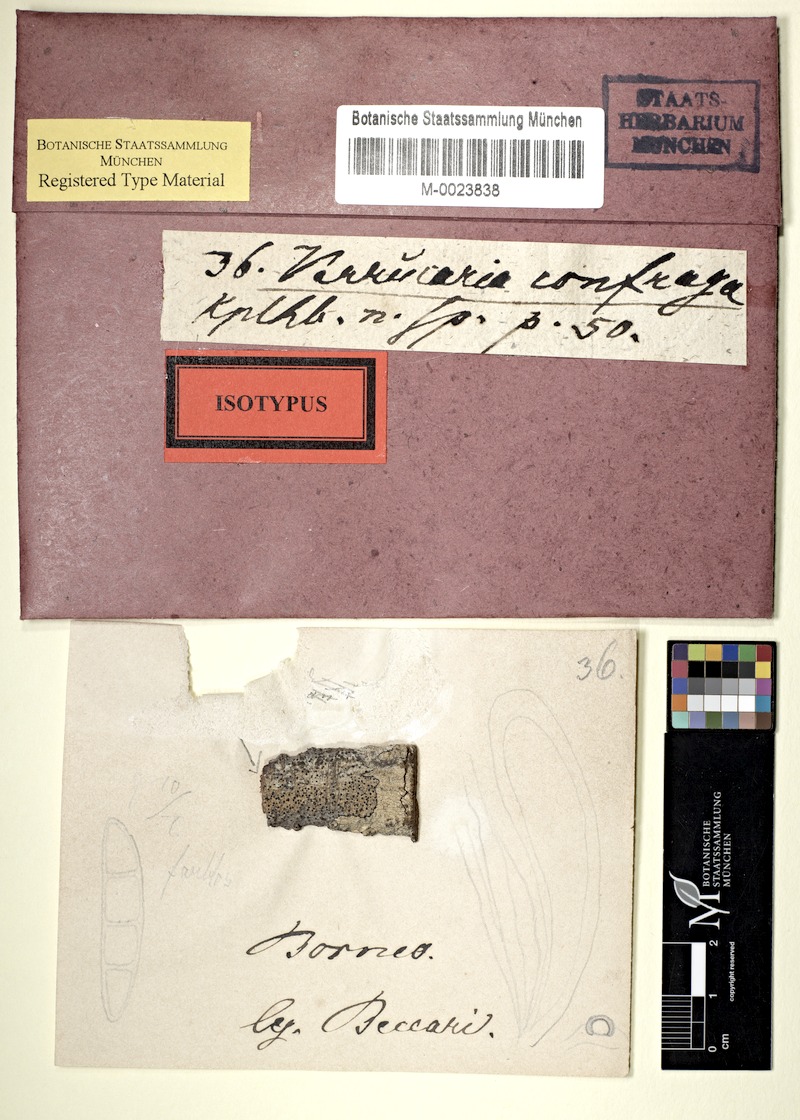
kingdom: Fungi
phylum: Ascomycota
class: Lecanoromycetes
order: Pertusariales
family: Pertusariaceae
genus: Porina
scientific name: Porina
